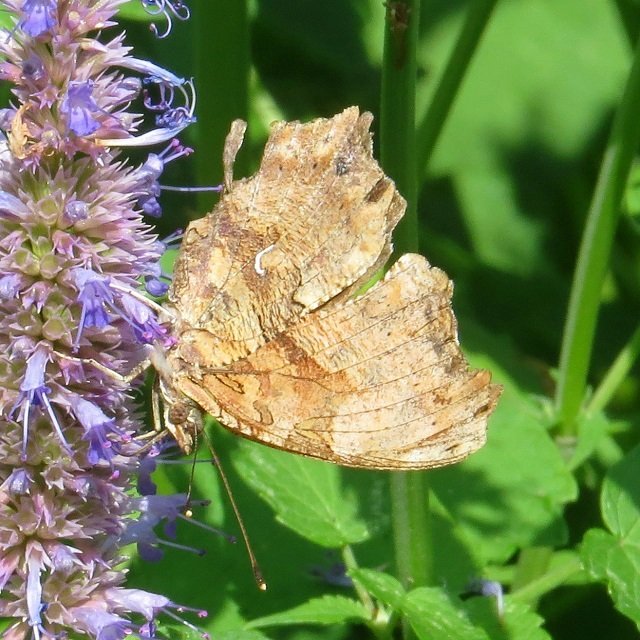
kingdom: Animalia
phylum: Arthropoda
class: Insecta
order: Lepidoptera
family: Nymphalidae
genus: Polygonia
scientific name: Polygonia comma
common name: Eastern Comma
